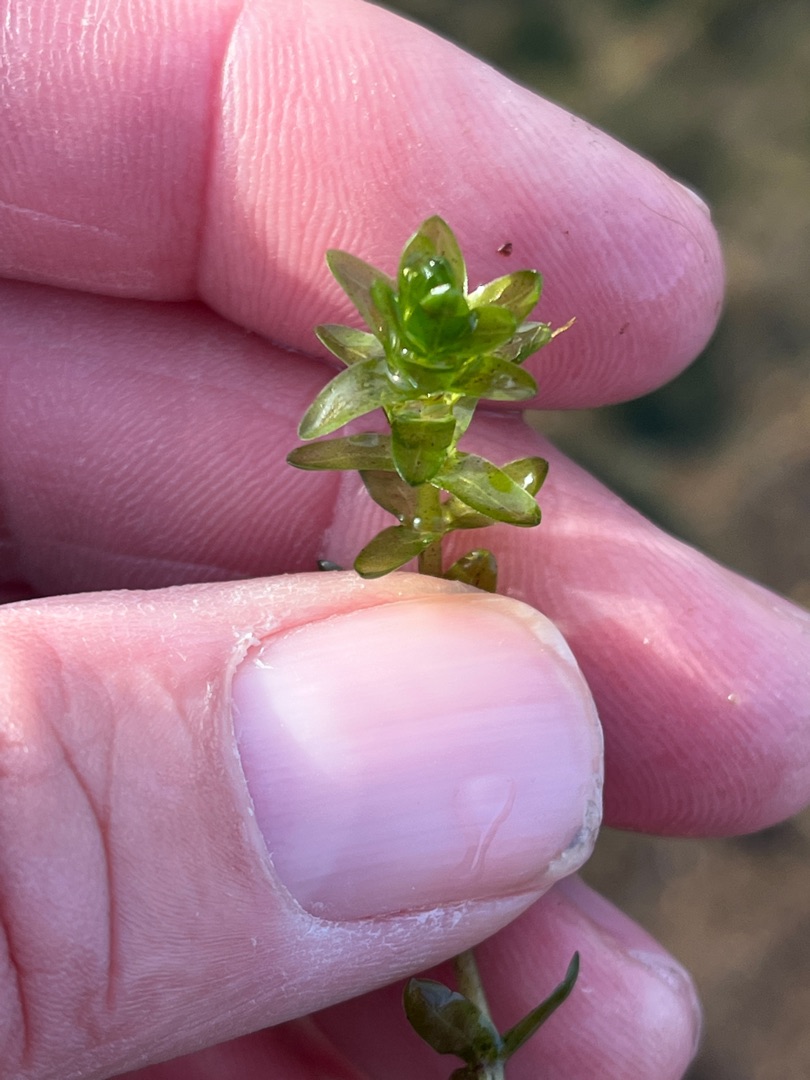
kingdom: Plantae
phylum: Tracheophyta
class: Liliopsida
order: Alismatales
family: Hydrocharitaceae
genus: Elodea
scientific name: Elodea canadensis
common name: Vandpest
